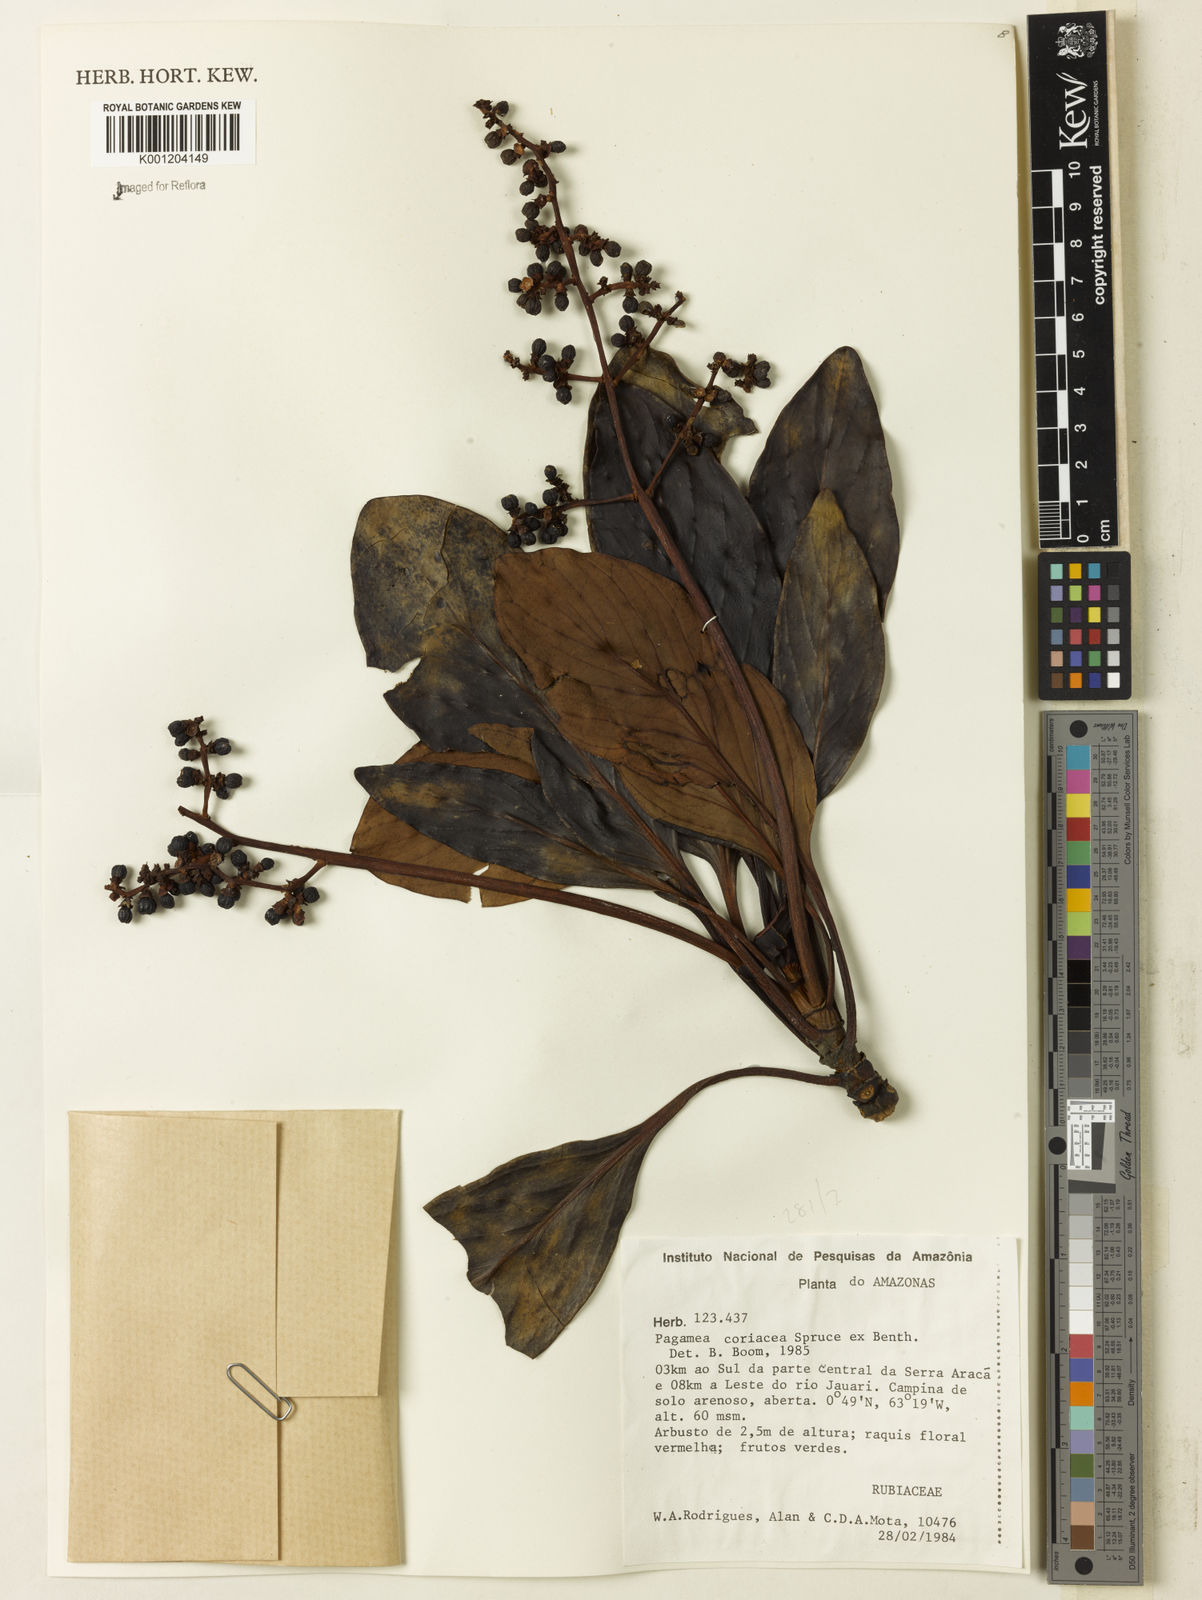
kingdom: Plantae
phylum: Tracheophyta
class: Magnoliopsida
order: Gentianales
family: Rubiaceae
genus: Pagamea
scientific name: Pagamea coriacea
